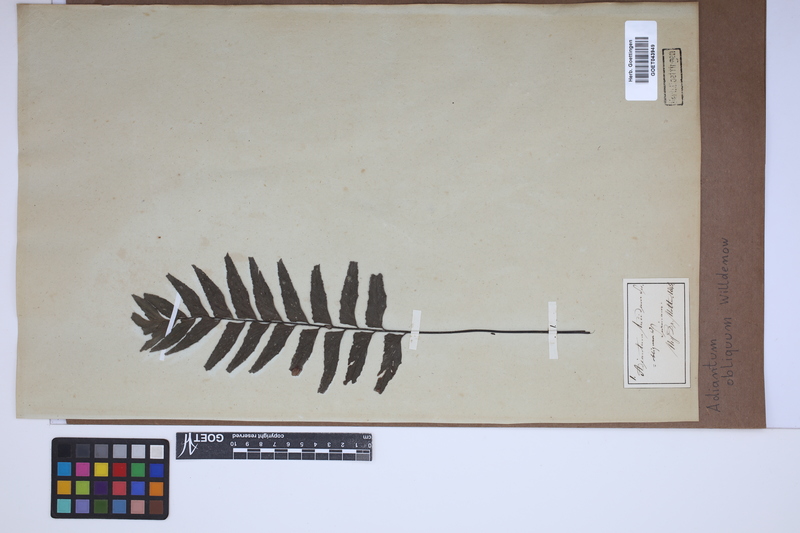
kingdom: Plantae
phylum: Tracheophyta
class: Polypodiopsida
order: Polypodiales
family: Pteridaceae
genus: Adiantum
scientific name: Adiantum macrophyllum
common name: Largeleaf maidenhair
